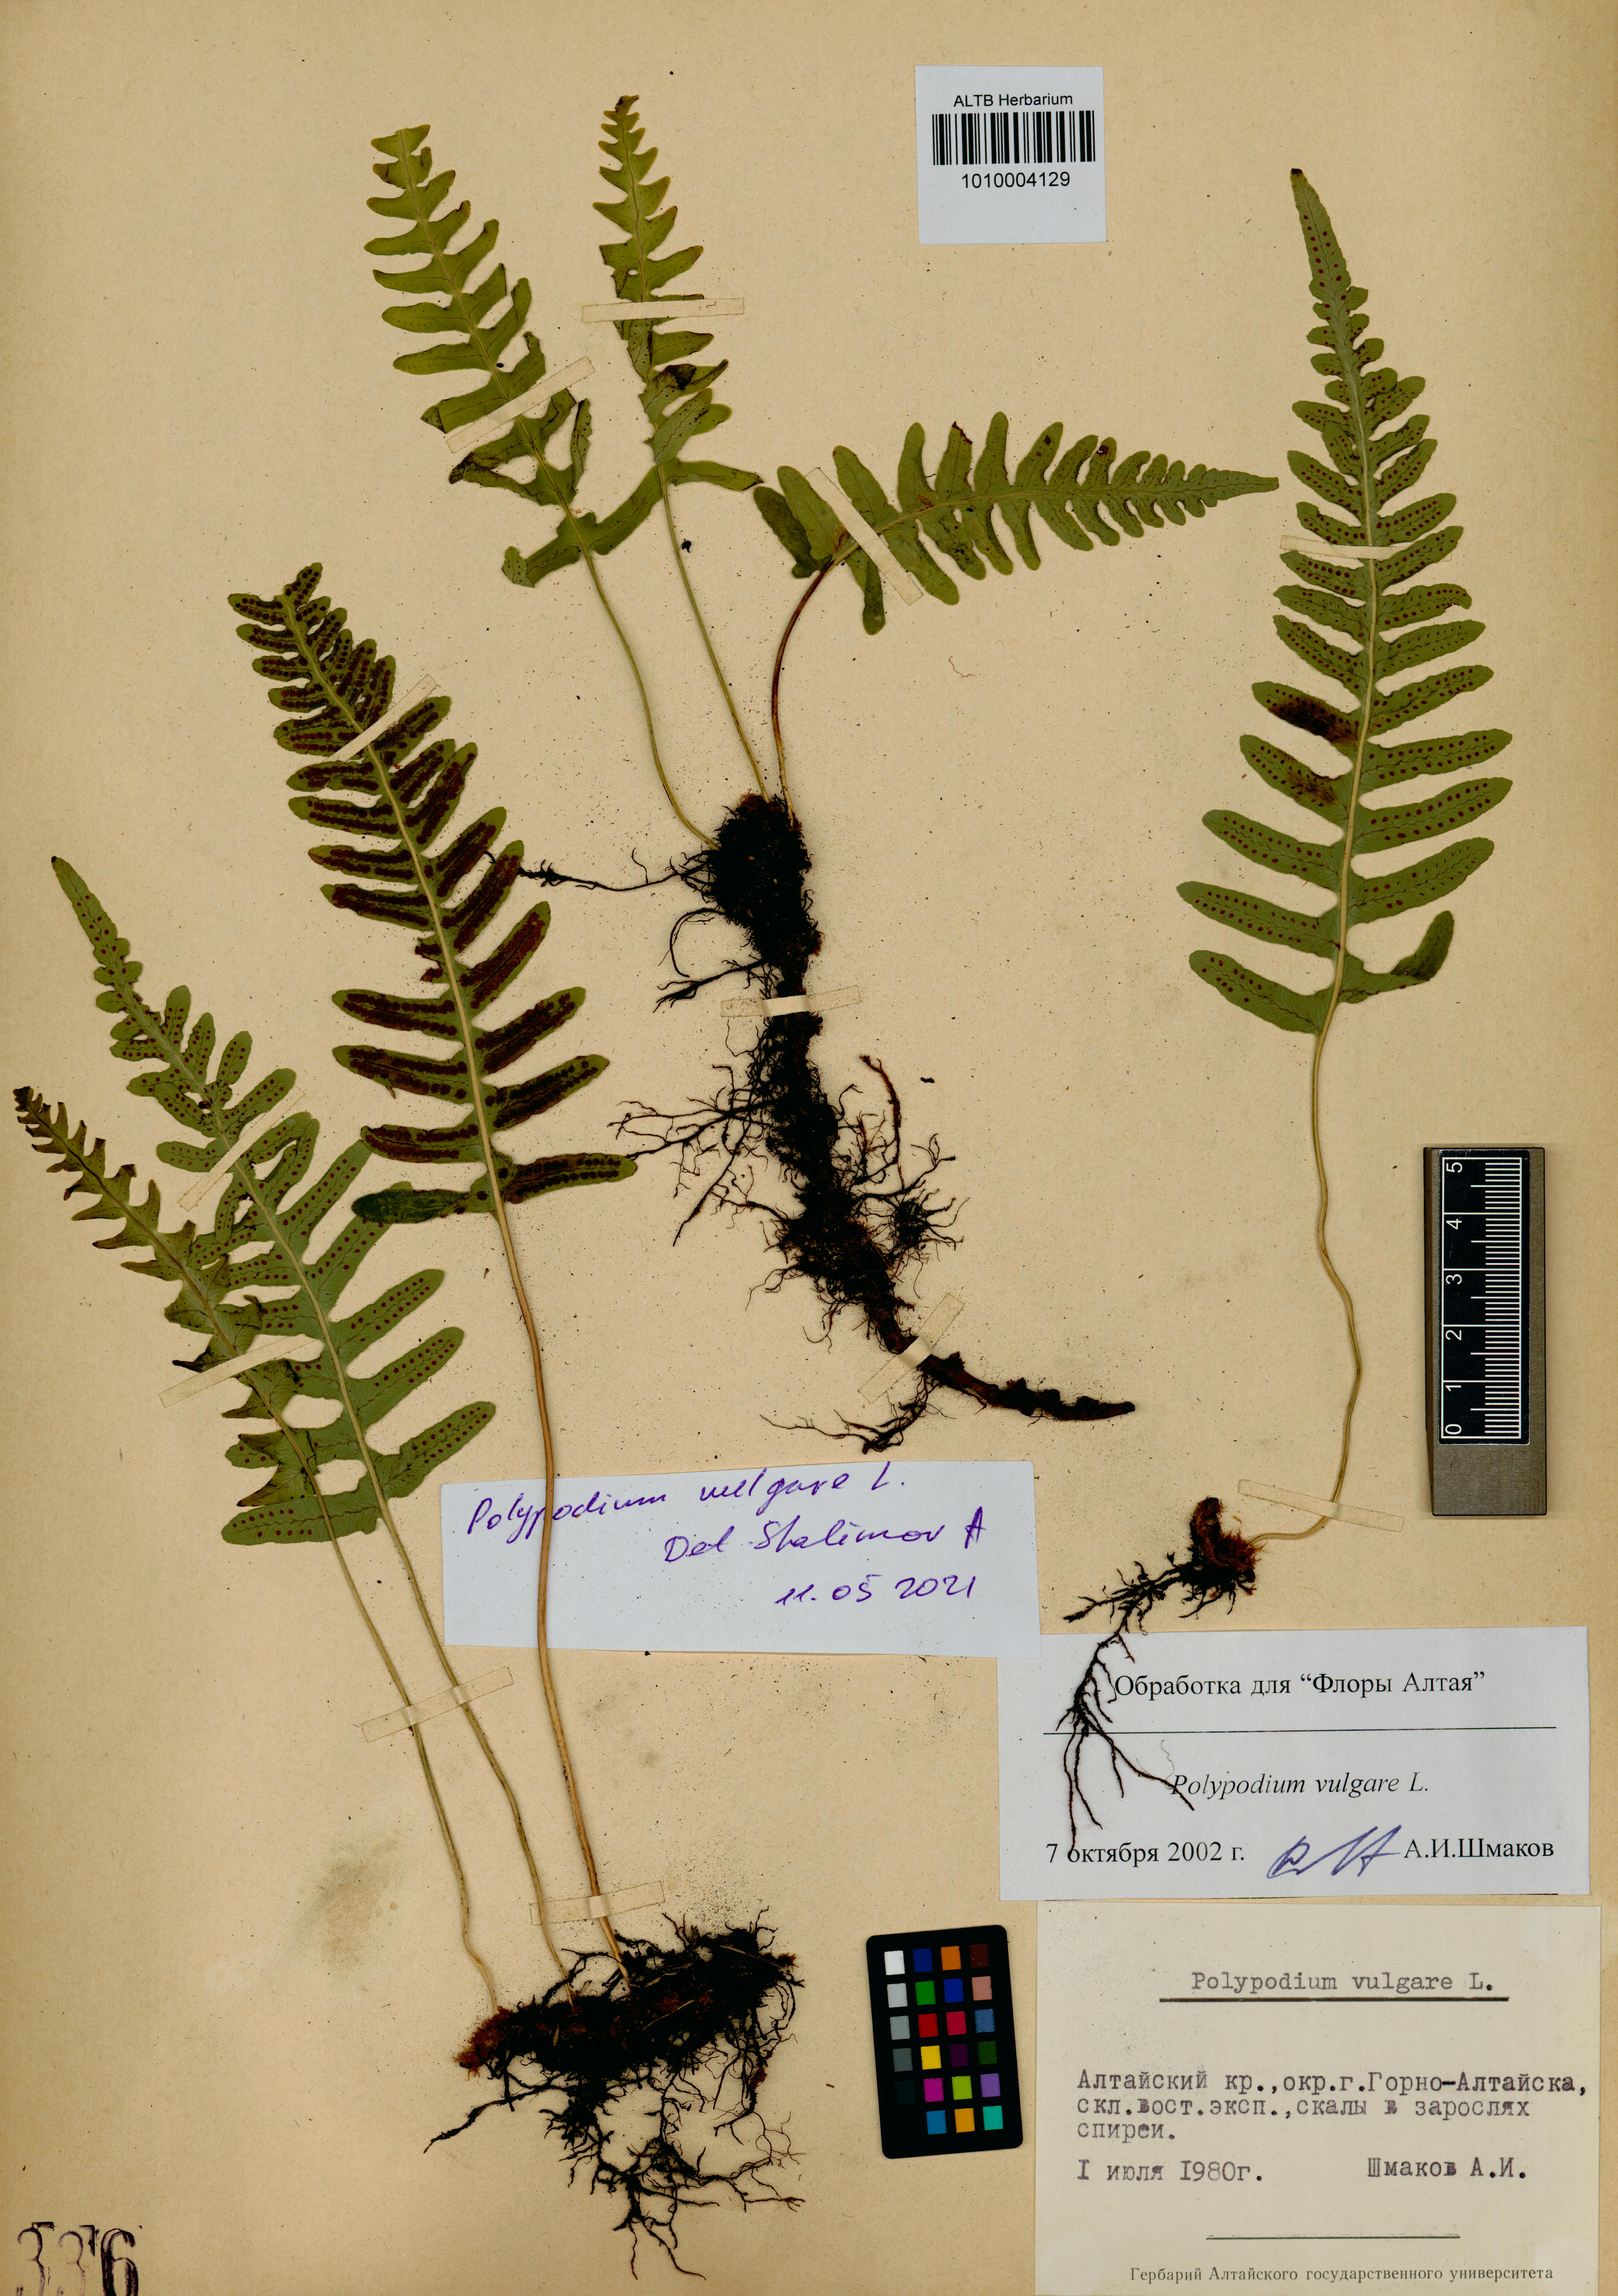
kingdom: Plantae
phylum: Tracheophyta
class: Polypodiopsida
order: Polypodiales
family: Polypodiaceae
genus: Polypodium
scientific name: Polypodium vulgare
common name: Common polypody
